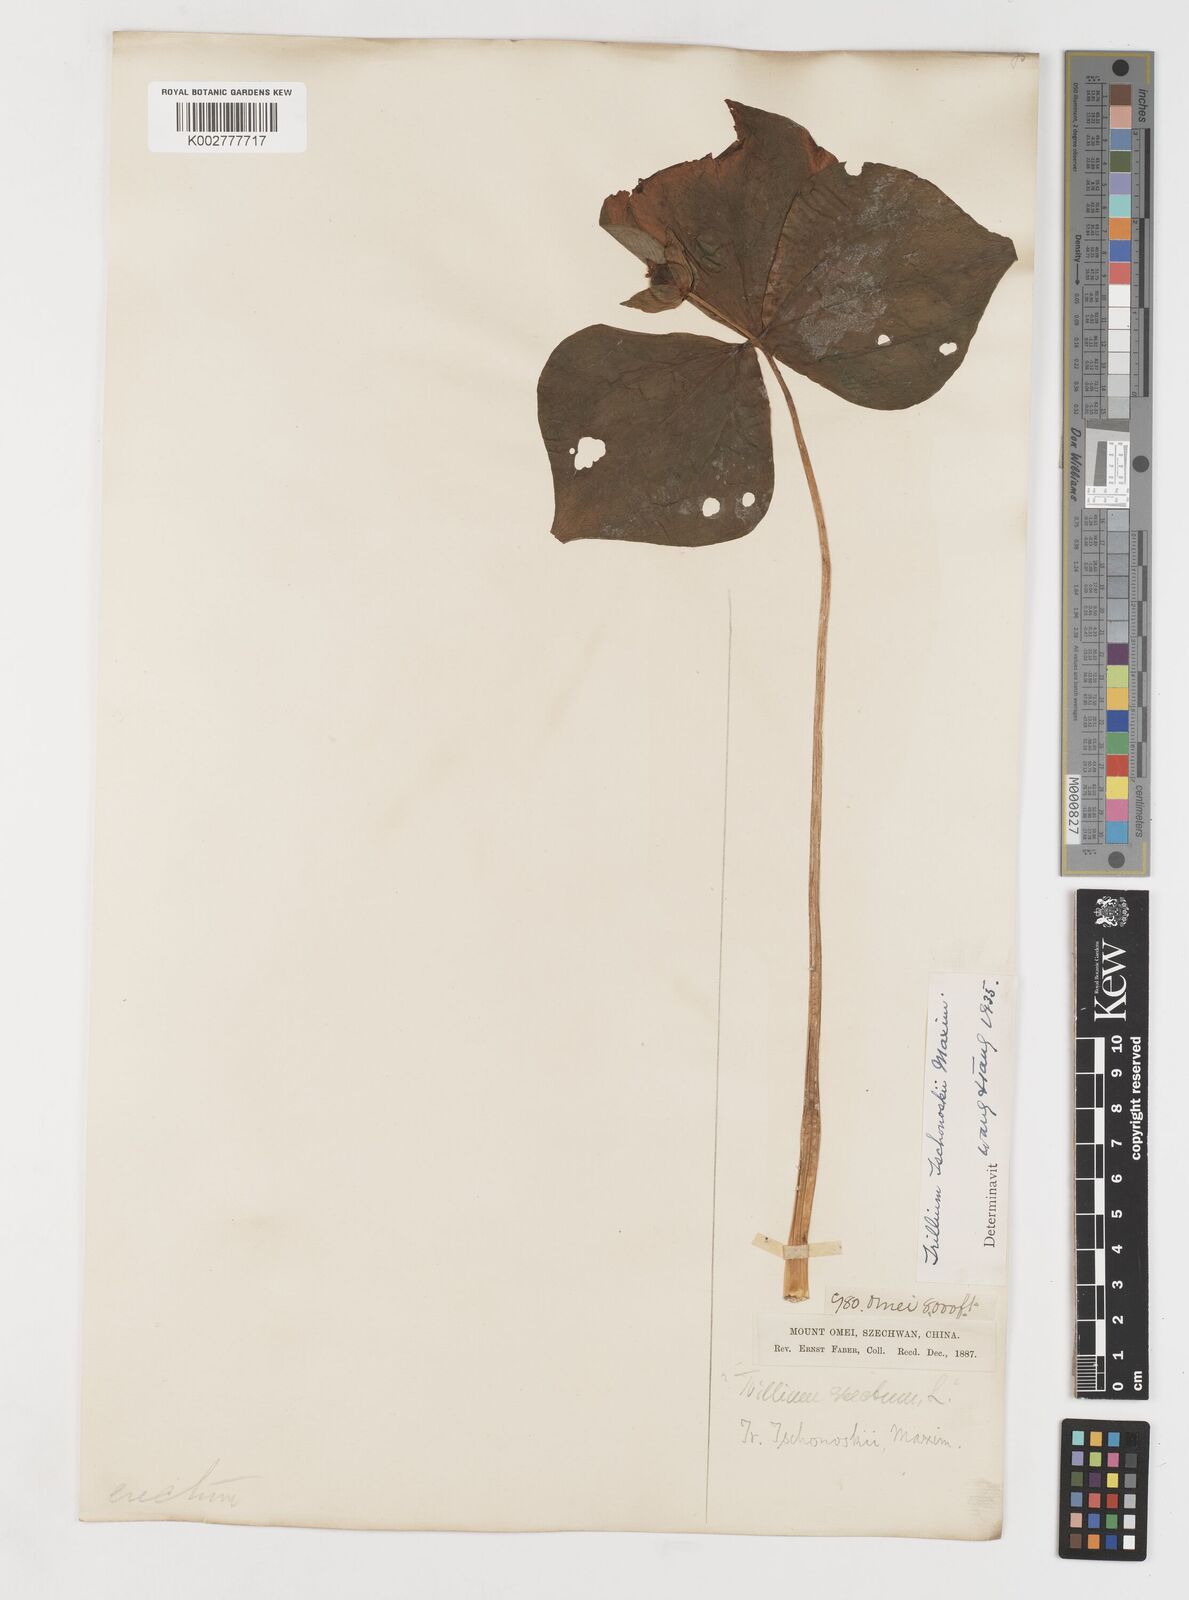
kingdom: Plantae
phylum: Tracheophyta
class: Liliopsida
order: Liliales
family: Melanthiaceae
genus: Trillium
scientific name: Trillium tschonoskii
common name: A pearl on head
